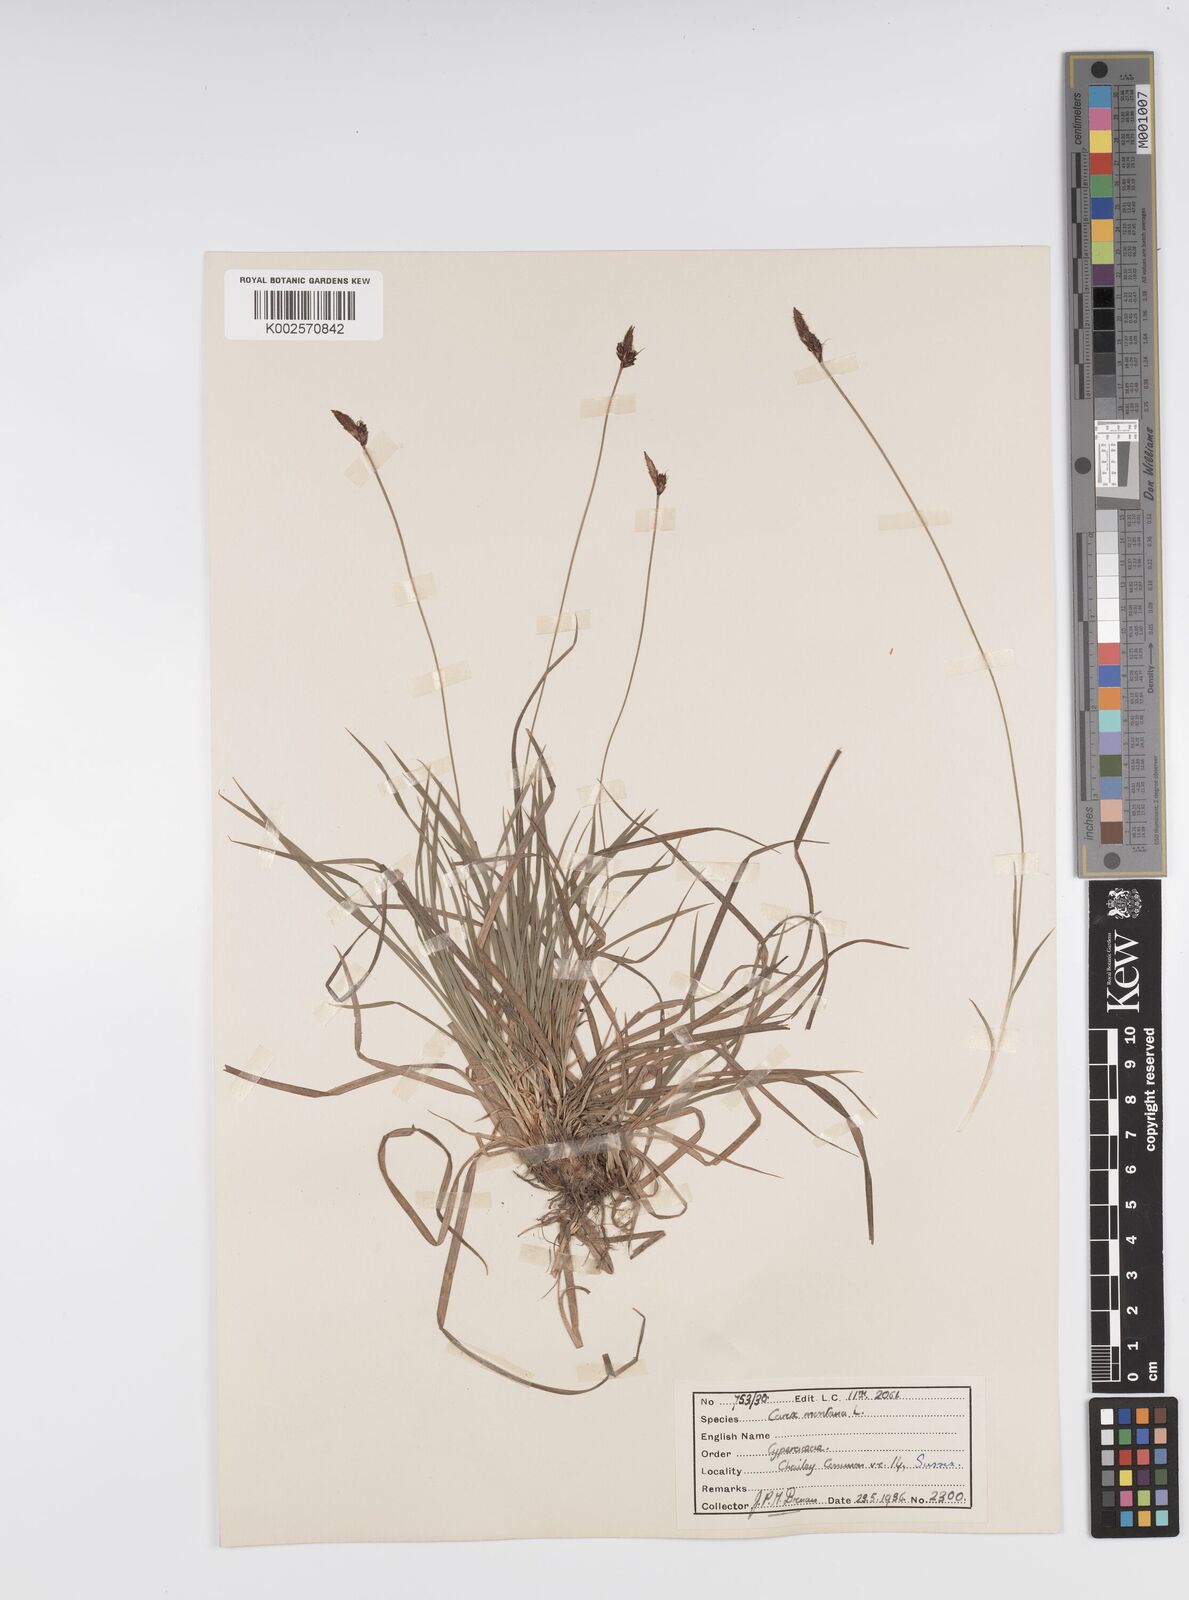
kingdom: Plantae
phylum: Tracheophyta
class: Liliopsida
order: Poales
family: Cyperaceae
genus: Carex
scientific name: Carex montana
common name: Soft-leaved sedge
